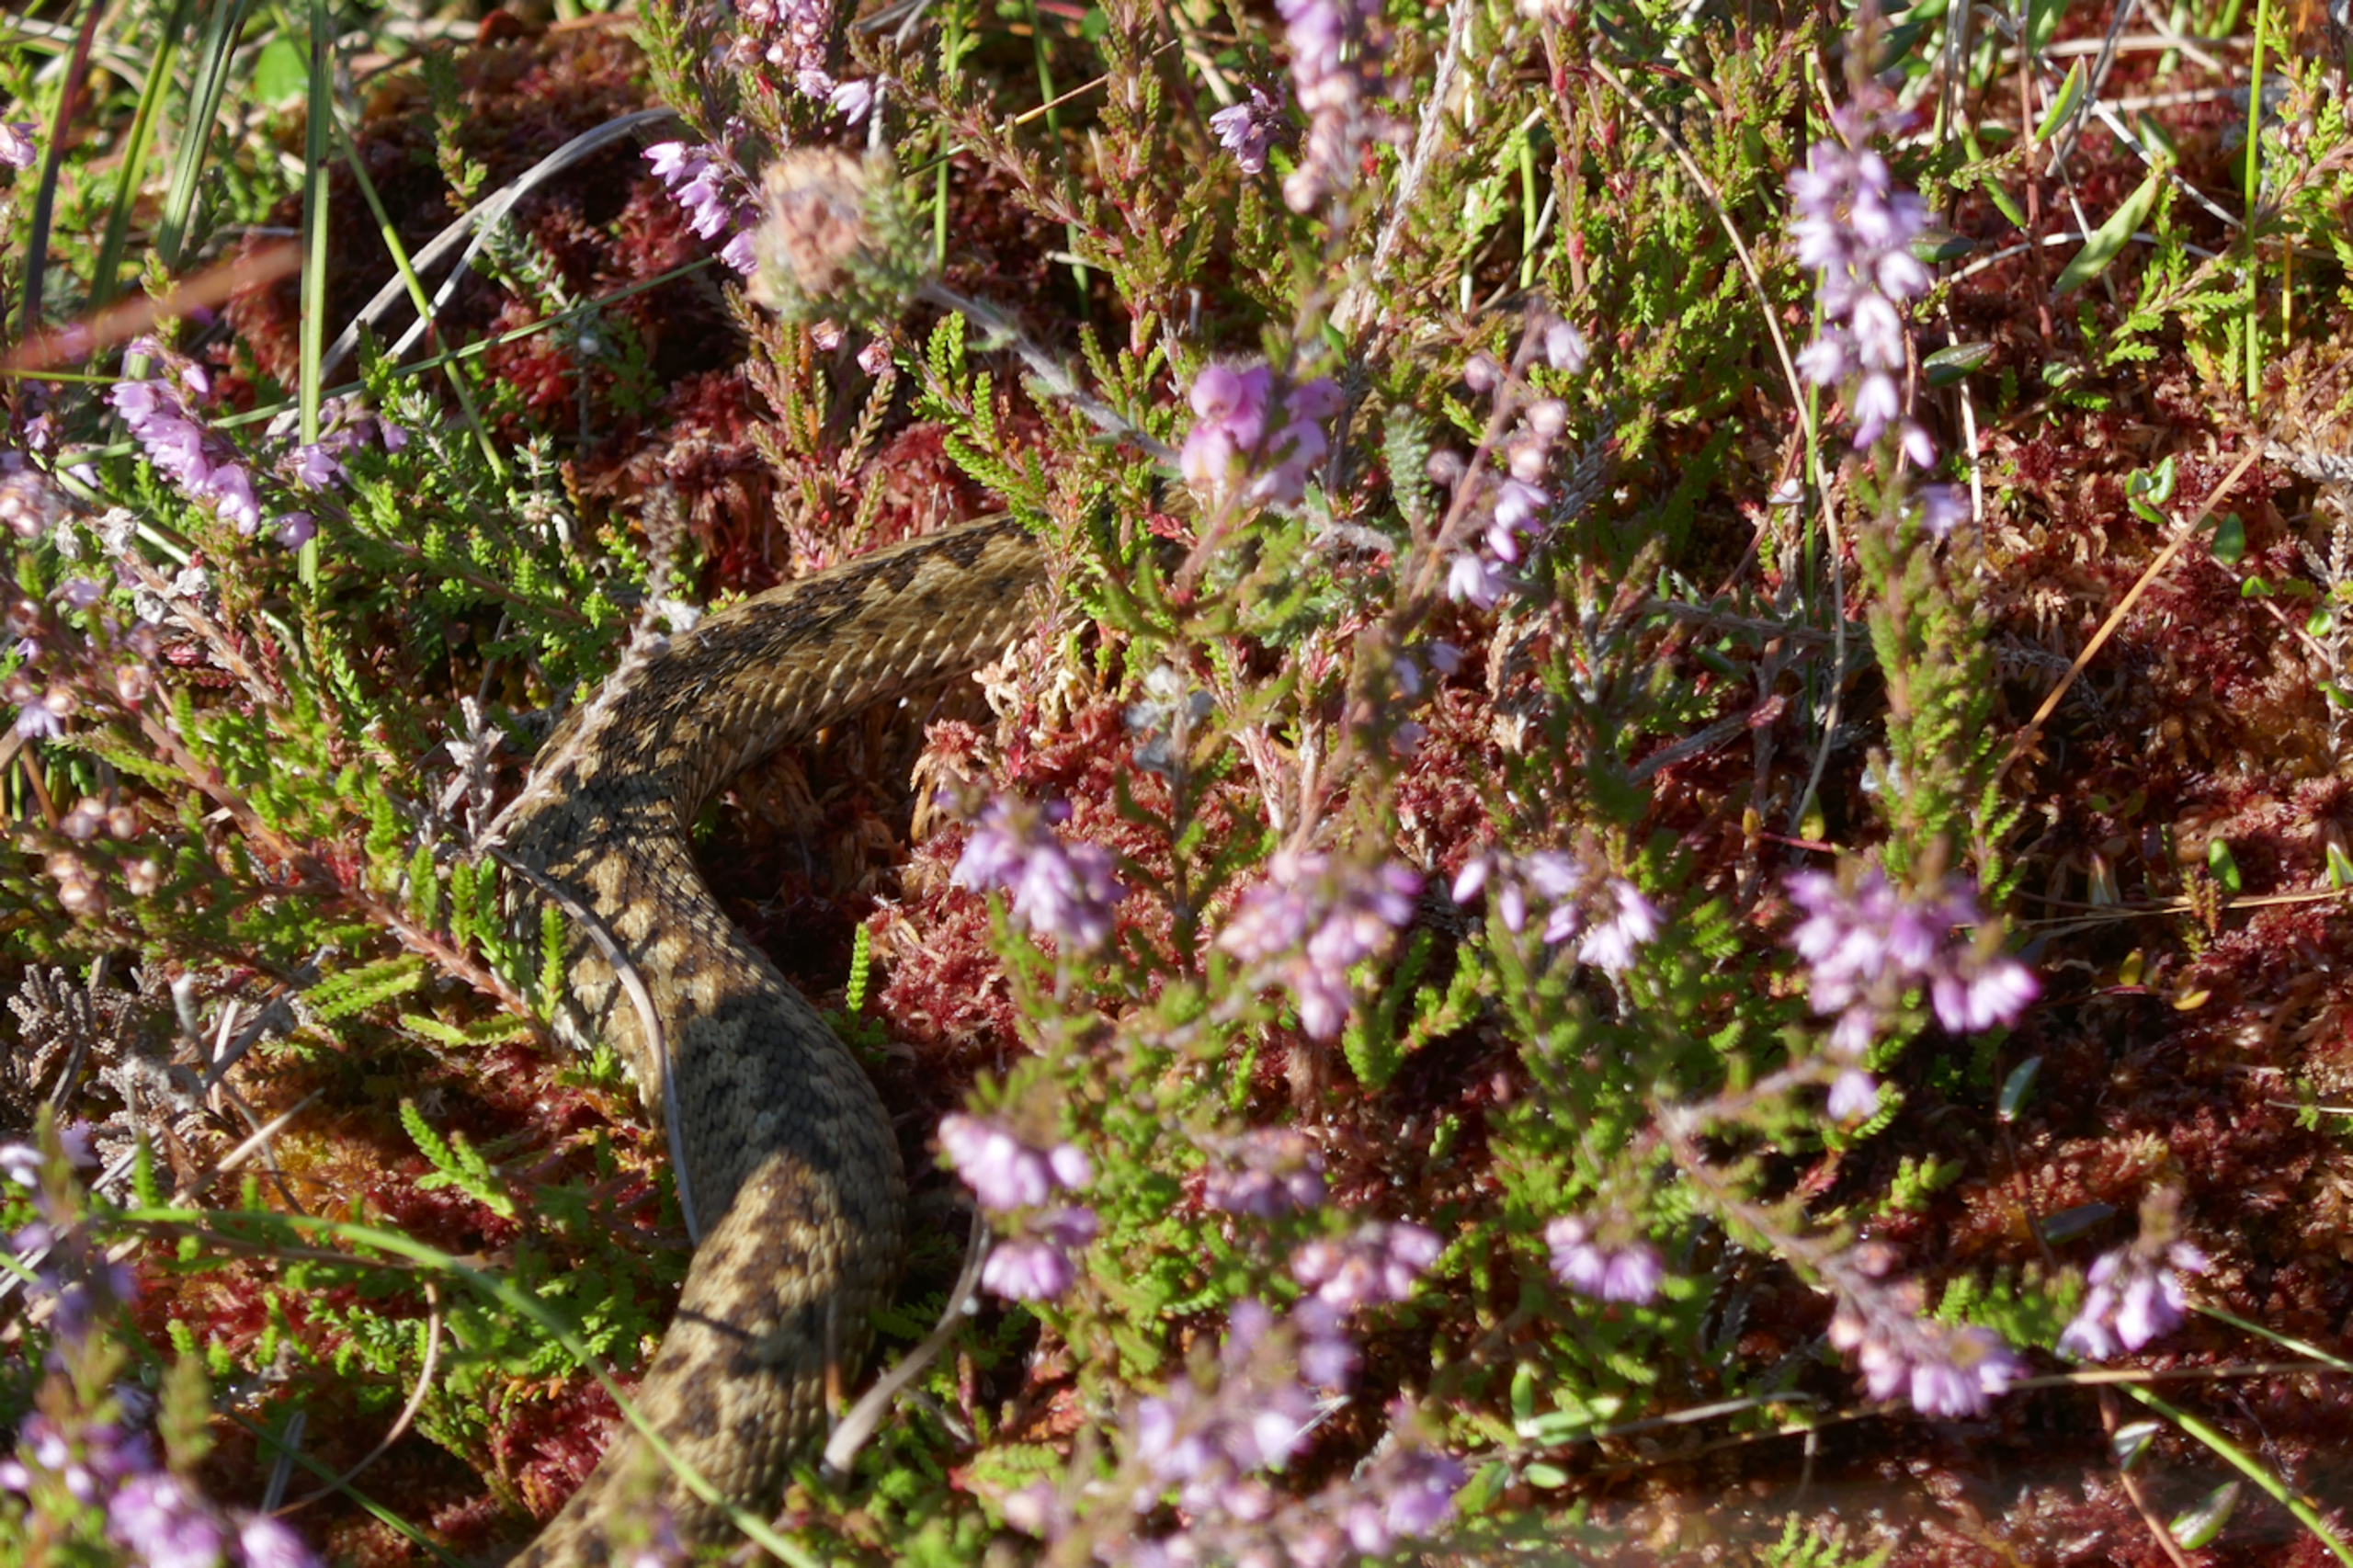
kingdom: Animalia
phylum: Chordata
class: Squamata
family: Viperidae
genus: Vipera
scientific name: Vipera berus
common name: Hugorm
